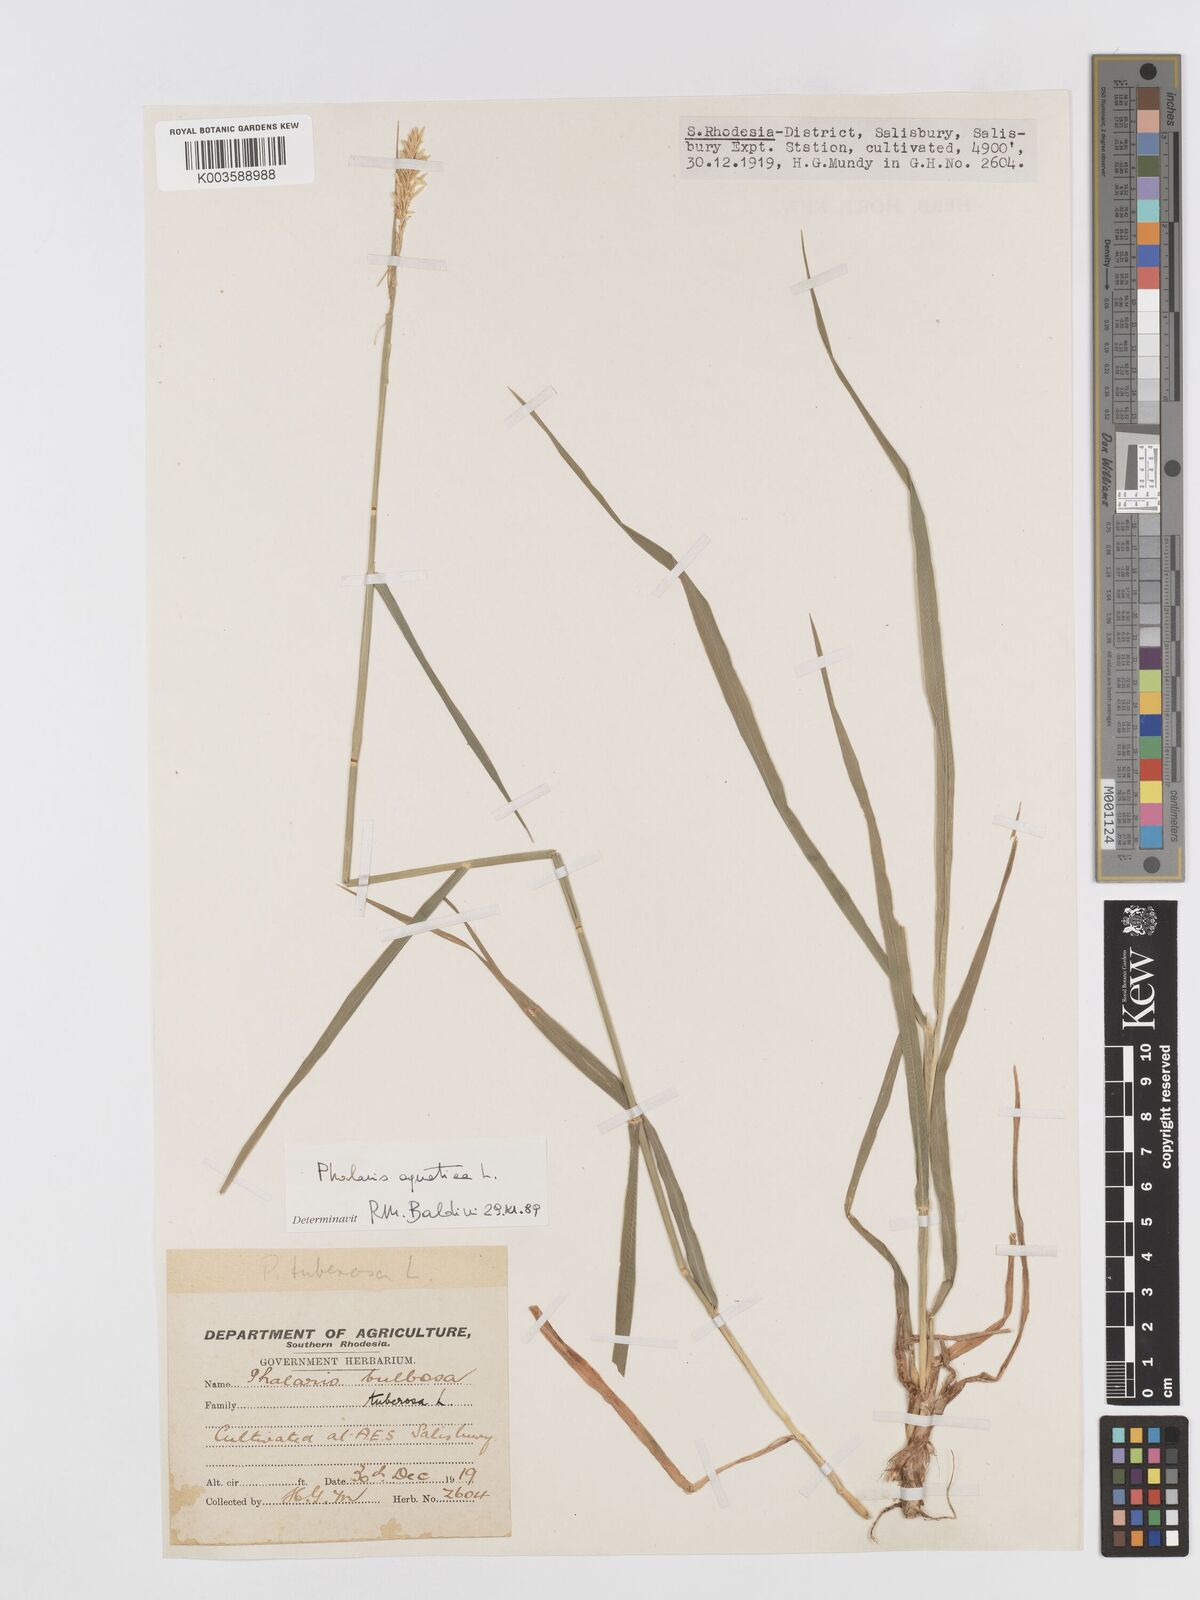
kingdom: Plantae
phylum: Tracheophyta
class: Liliopsida
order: Poales
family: Poaceae
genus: Phalaris
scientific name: Phalaris aquatica
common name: Bulbous canary-grass
